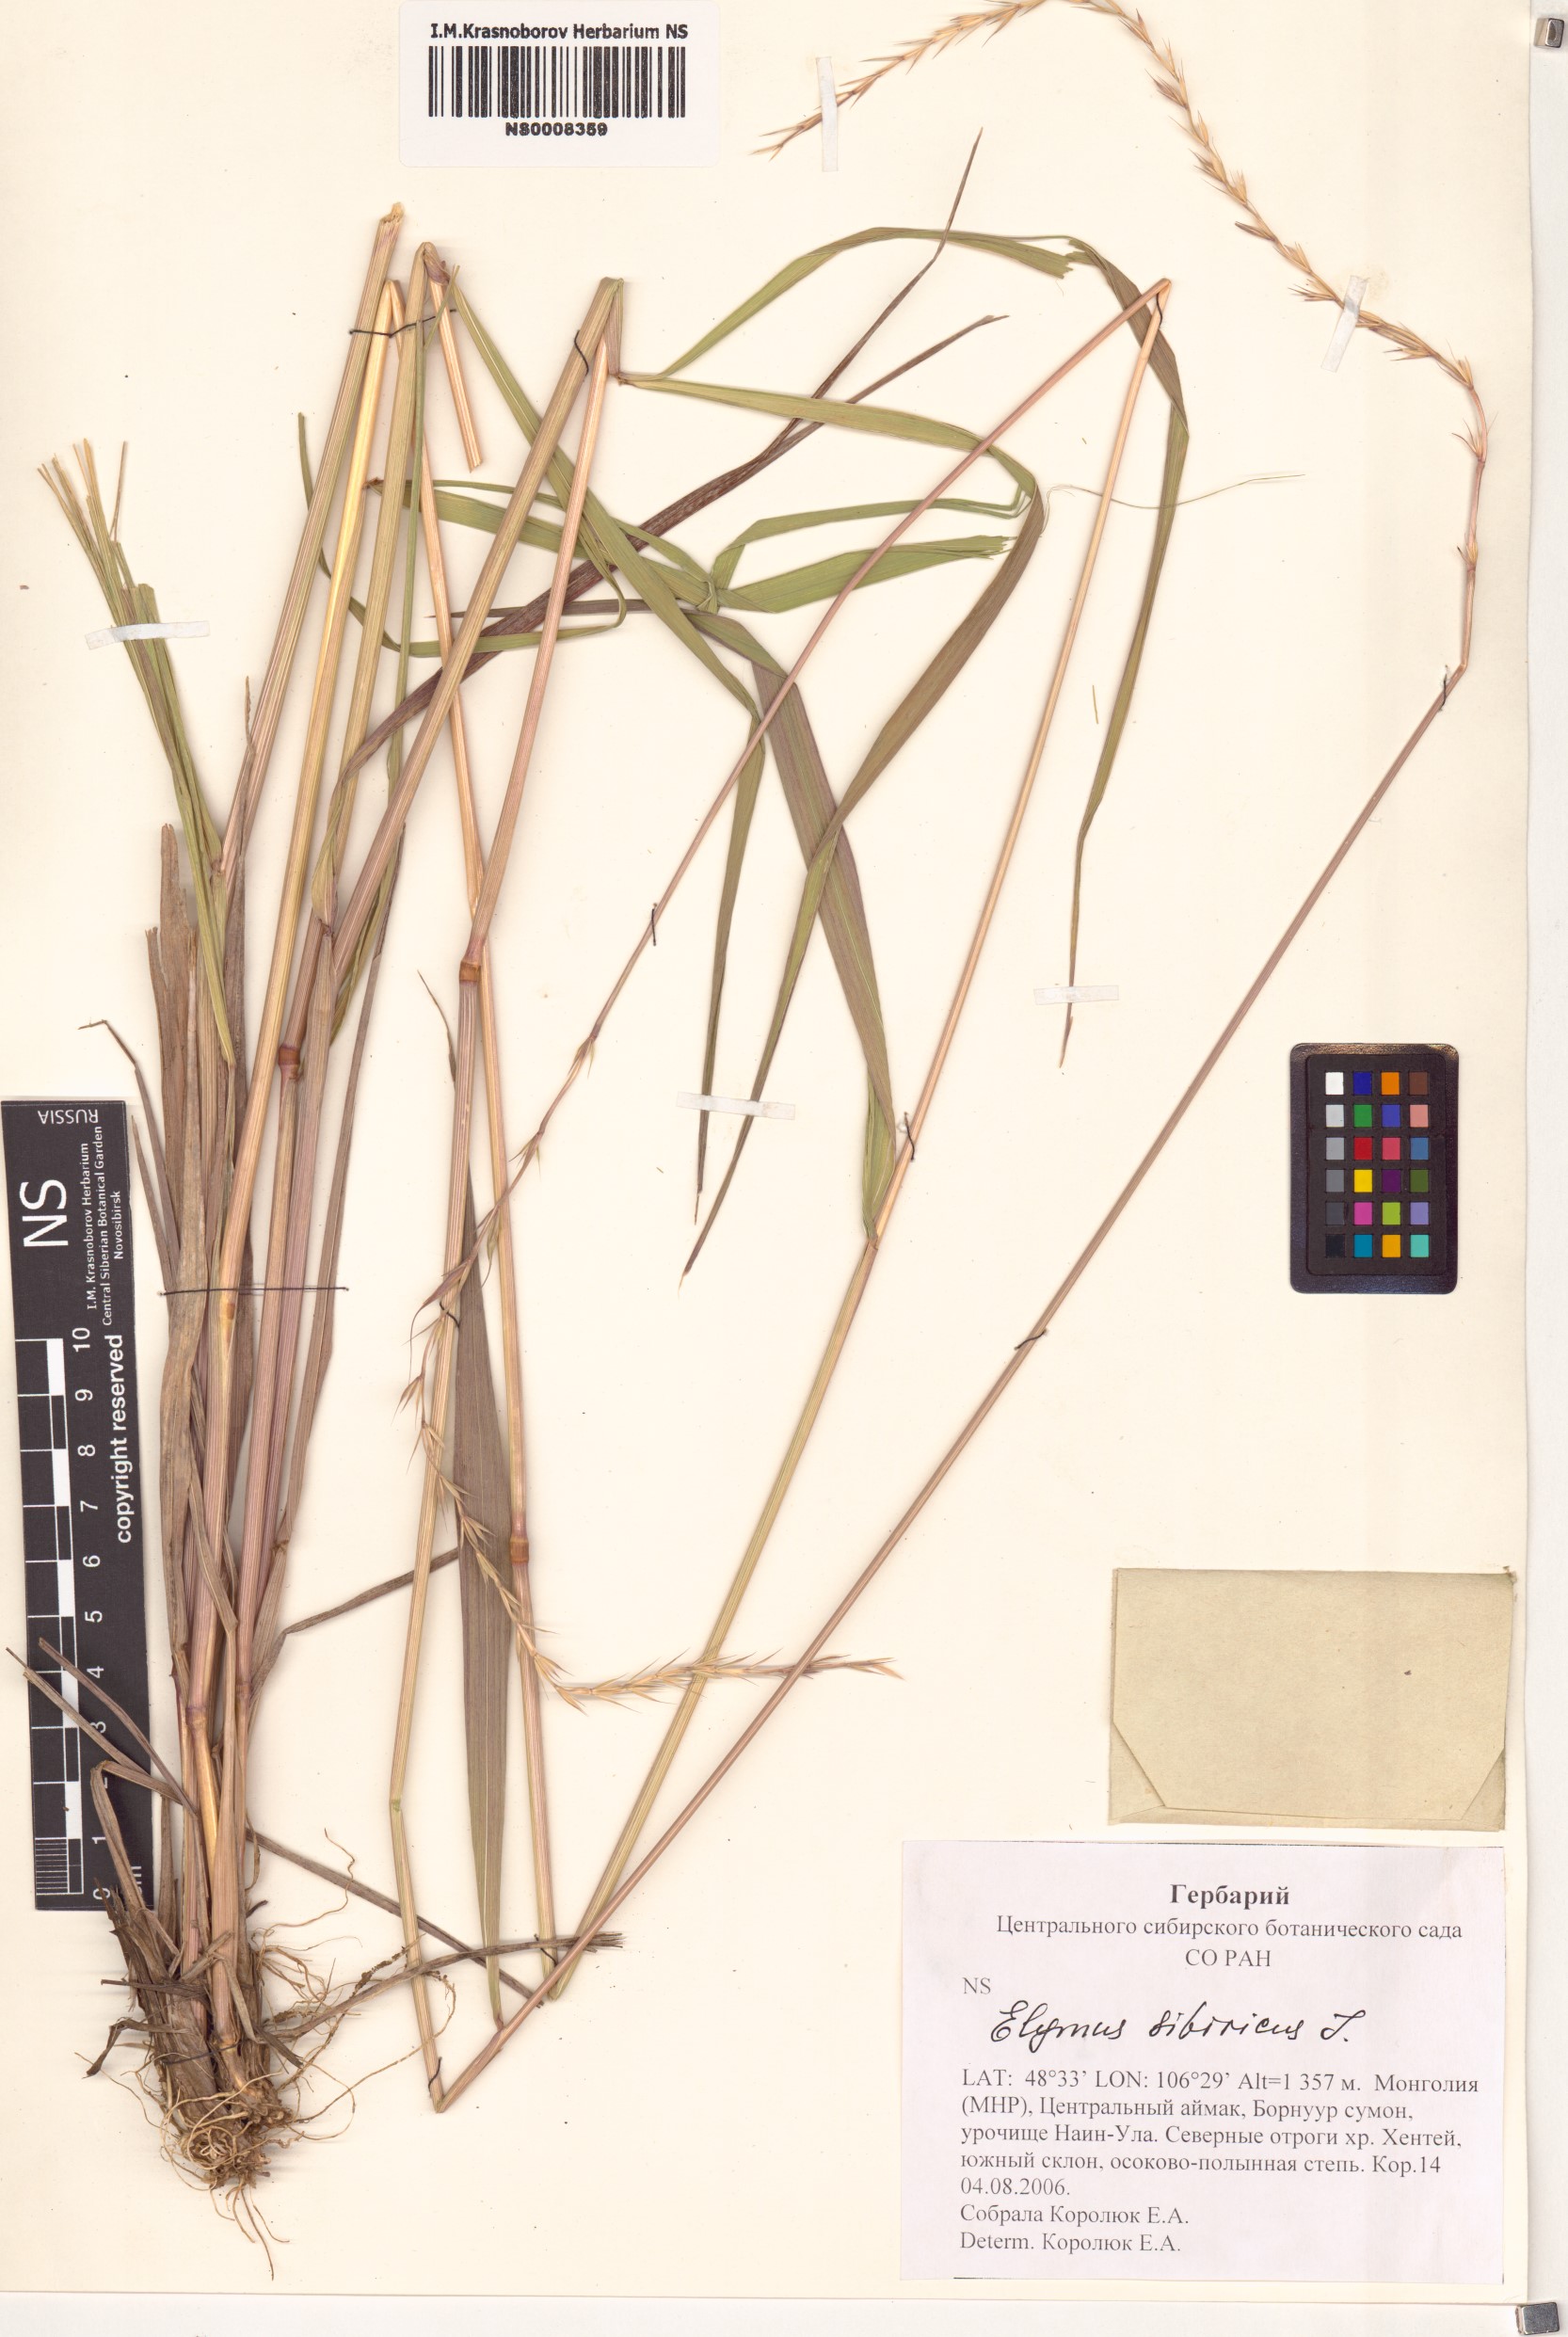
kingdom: Plantae
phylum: Tracheophyta
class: Liliopsida
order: Poales
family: Poaceae
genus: Elymus
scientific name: Elymus sibiricus
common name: Siberian wildrye
